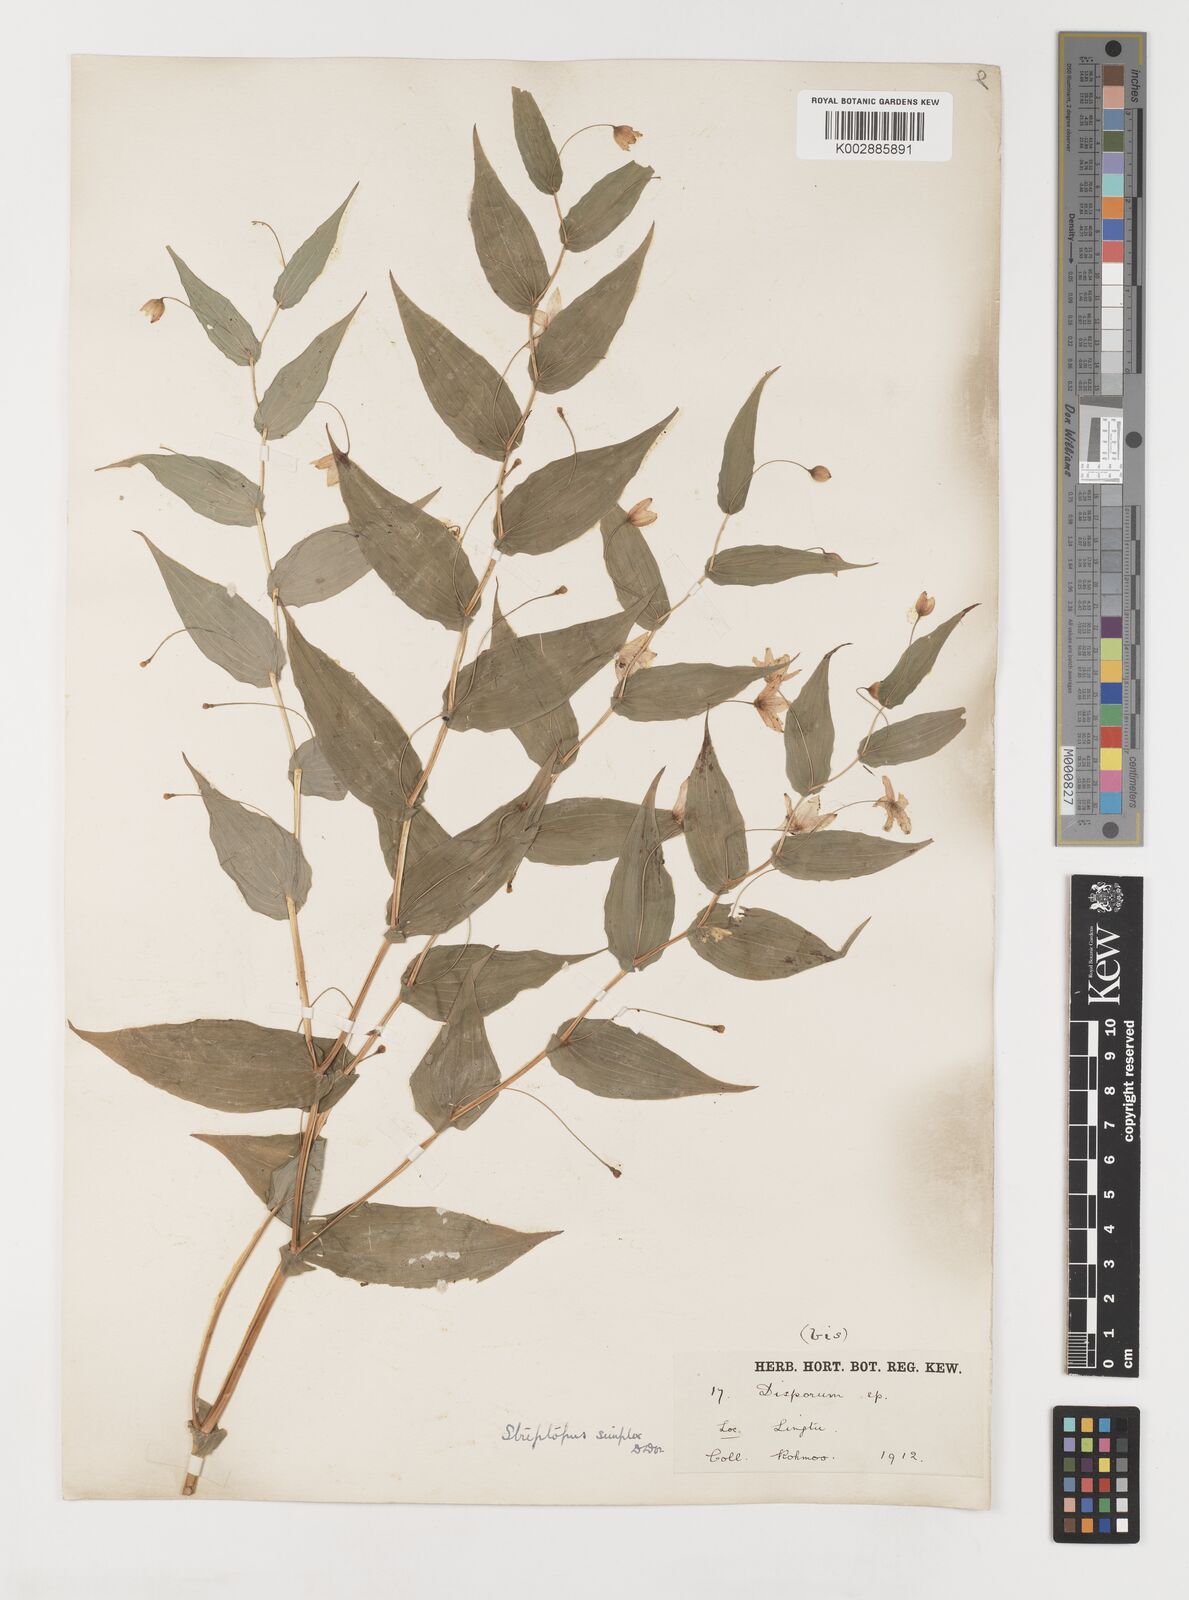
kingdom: Plantae
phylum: Tracheophyta
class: Liliopsida
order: Liliales
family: Liliaceae
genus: Streptopus
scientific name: Streptopus simplex
